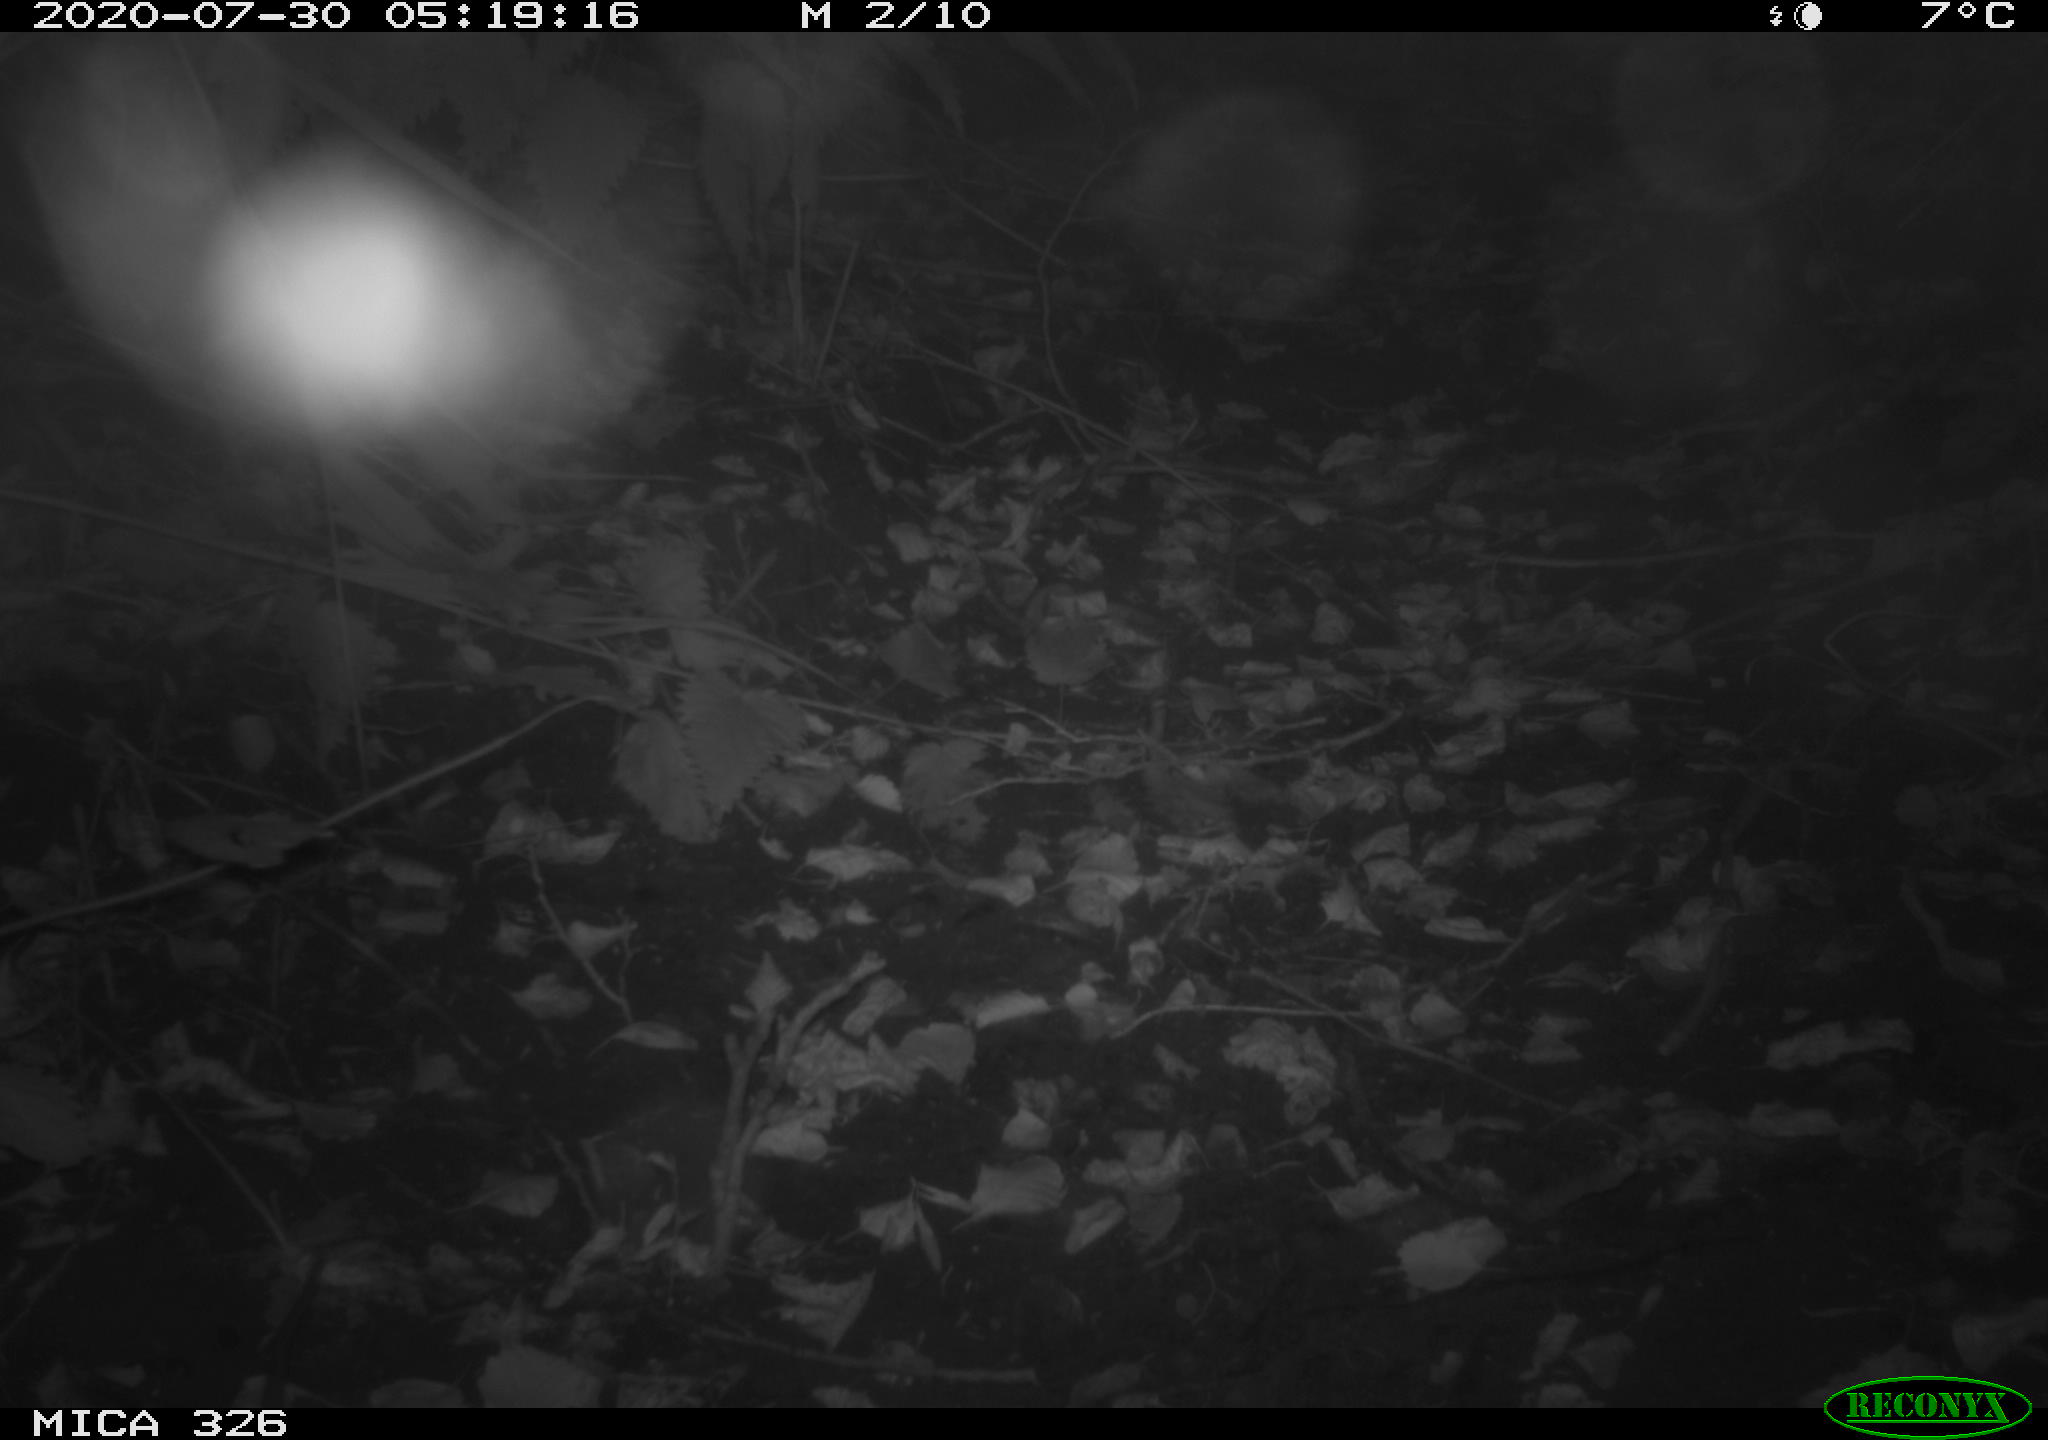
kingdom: Animalia
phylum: Chordata
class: Mammalia
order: Rodentia
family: Muridae
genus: Rattus
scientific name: Rattus norvegicus
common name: Brown rat
